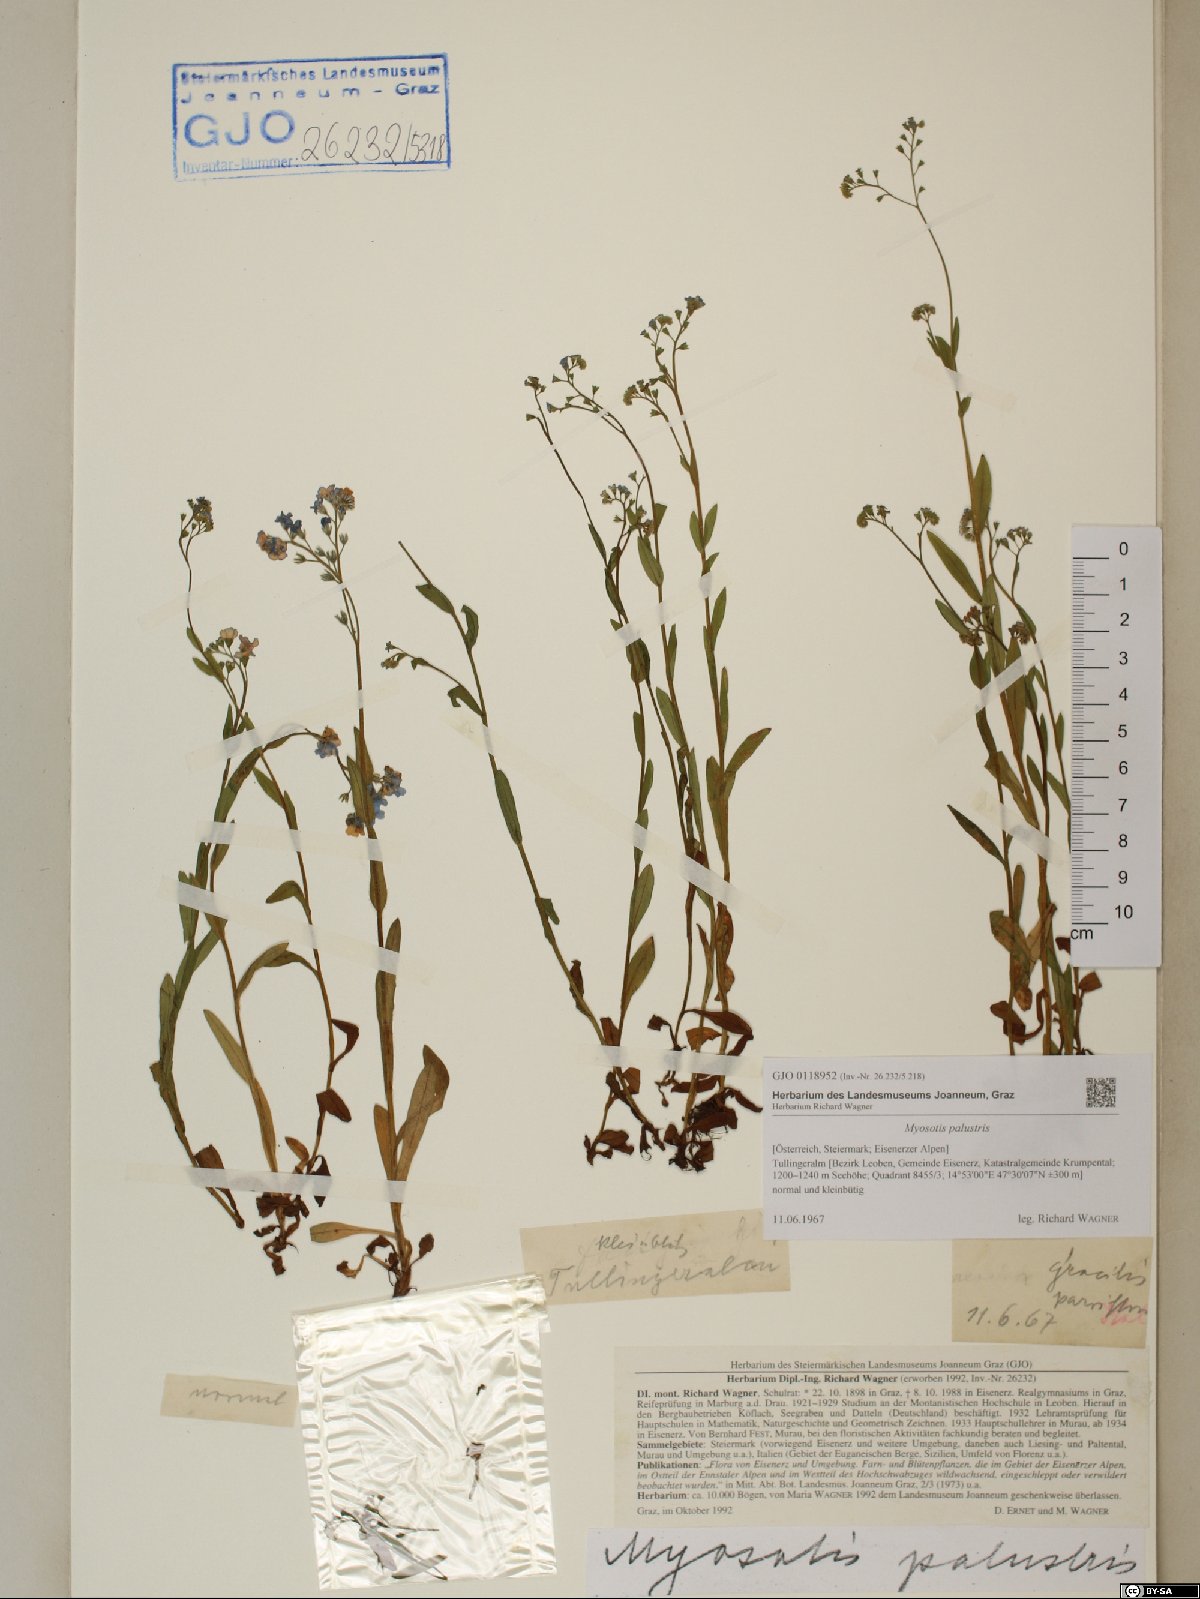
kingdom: Plantae
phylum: Tracheophyta
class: Magnoliopsida
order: Boraginales
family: Boraginaceae
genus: Myosotis
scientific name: Myosotis scorpioides
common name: Water forget-me-not
